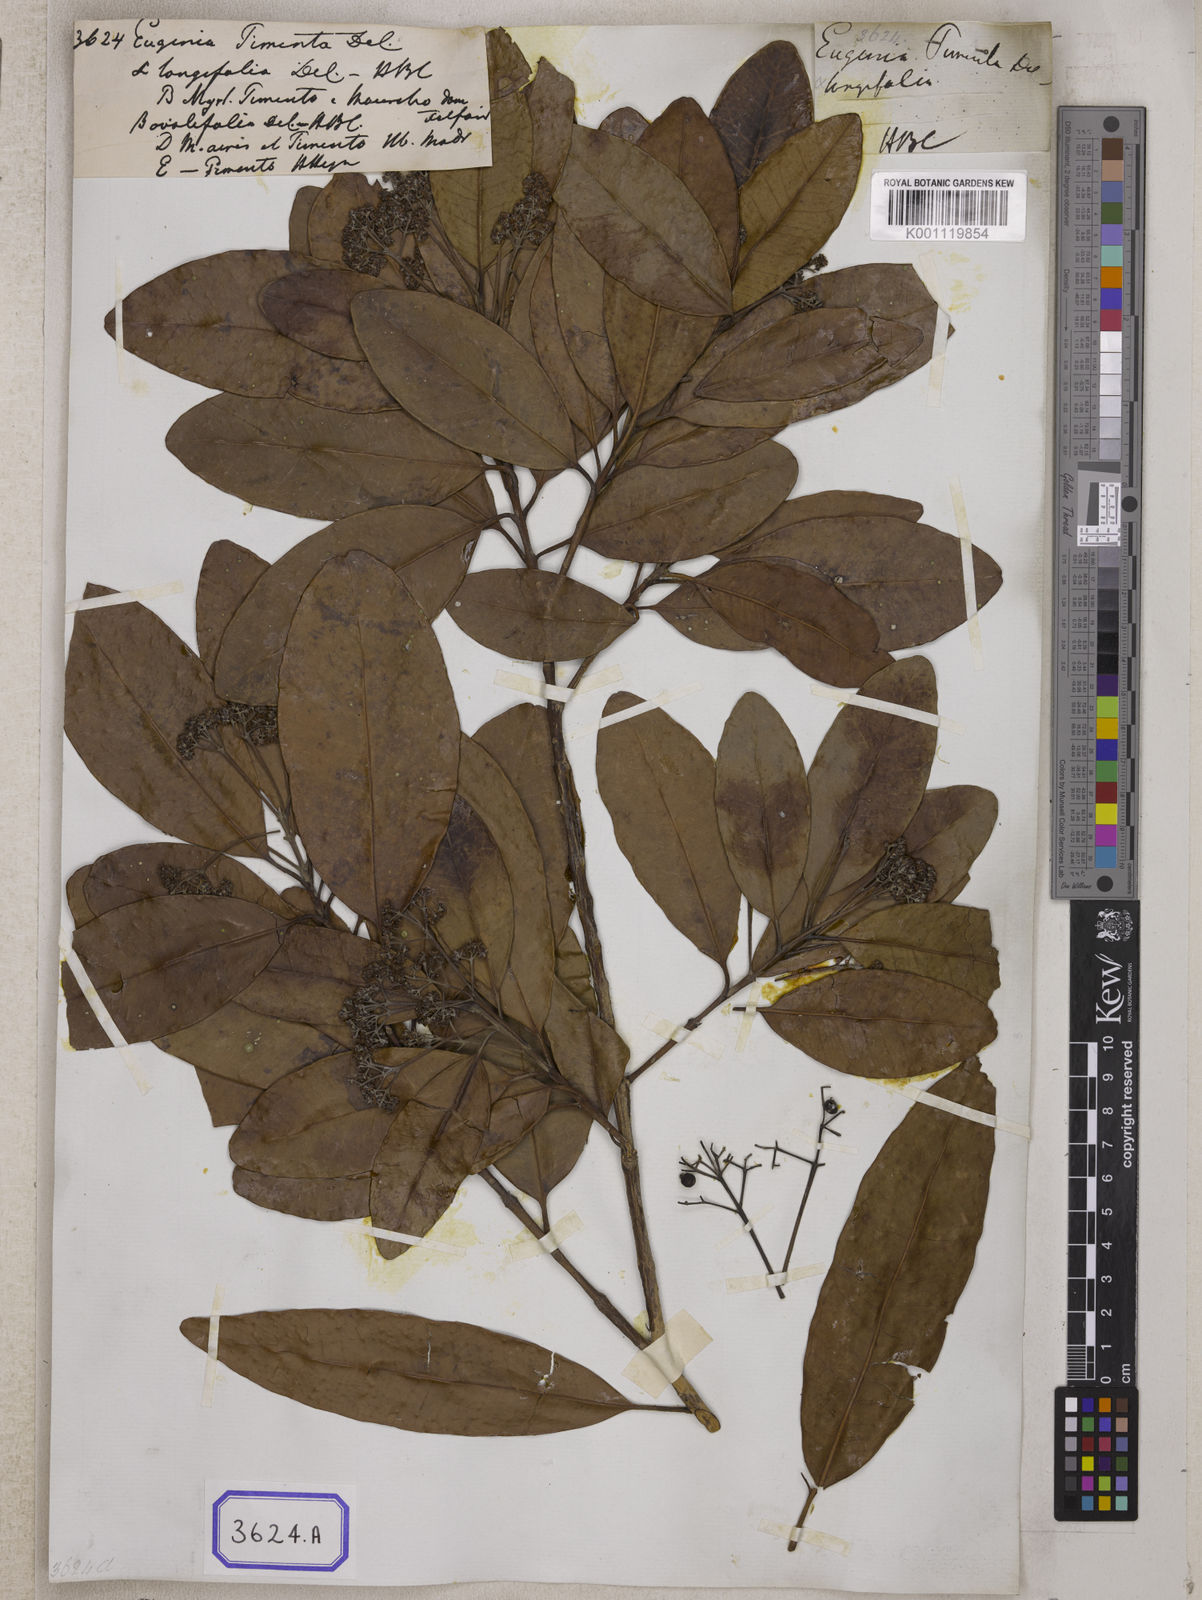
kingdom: Plantae
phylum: Tracheophyta
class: Magnoliopsida
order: Myrtales
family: Myrtaceae
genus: Pimenta
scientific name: Pimenta dioica
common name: Allspice
